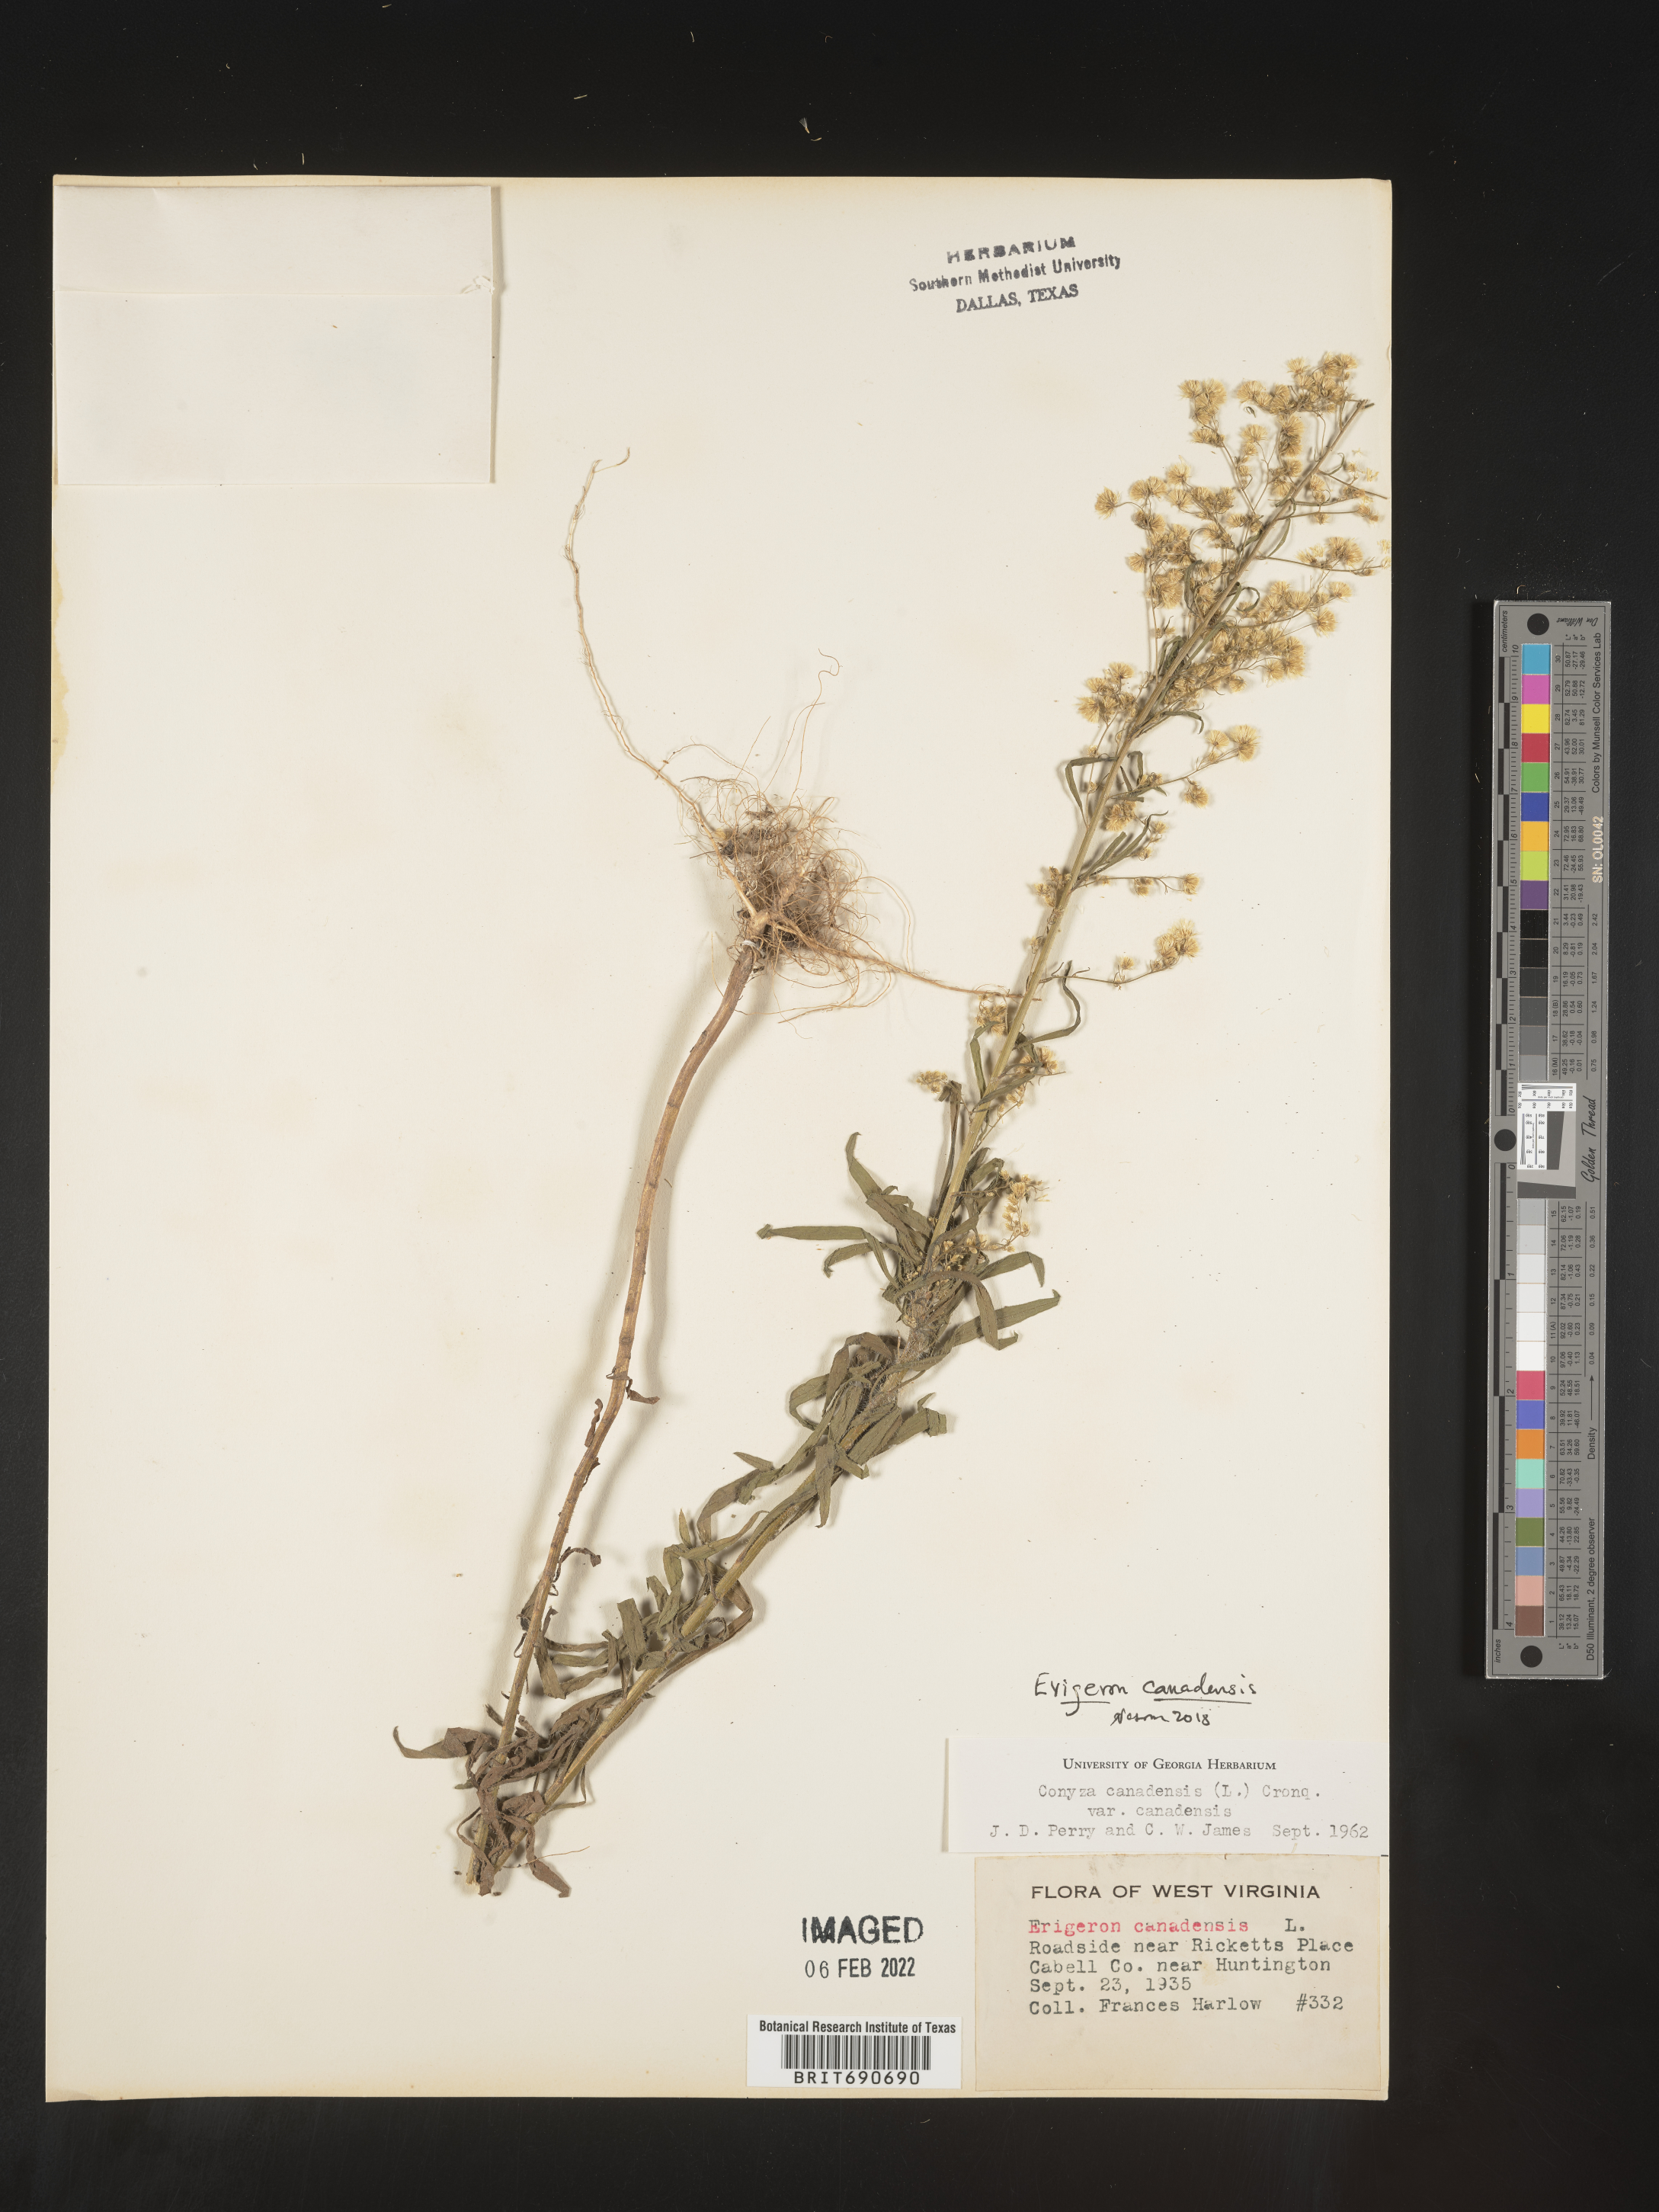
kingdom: Plantae
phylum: Tracheophyta
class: Magnoliopsida
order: Asterales
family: Asteraceae
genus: Erigeron
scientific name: Erigeron canadensis
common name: Canadian fleabane
